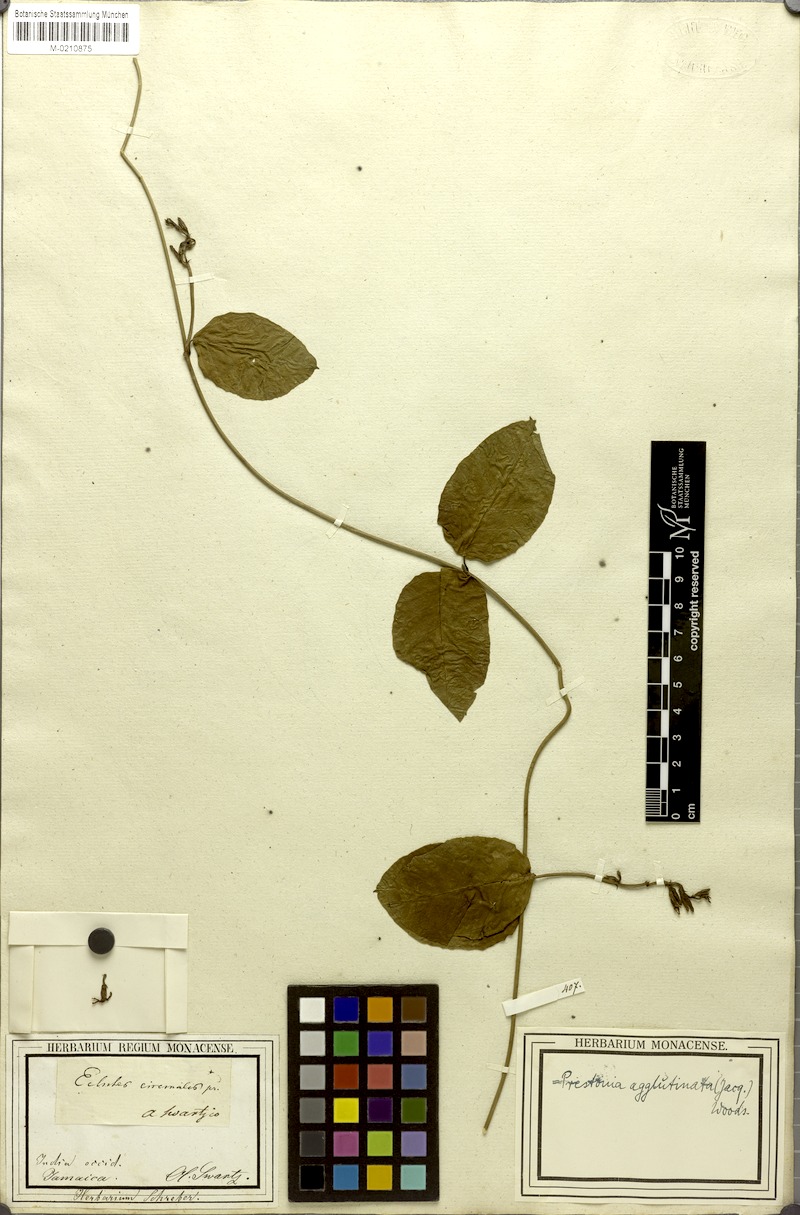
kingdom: Plantae
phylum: Tracheophyta
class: Magnoliopsida
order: Gentianales
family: Apocynaceae
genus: Echites
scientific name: Echites agglutinatus
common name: Azufaifo
